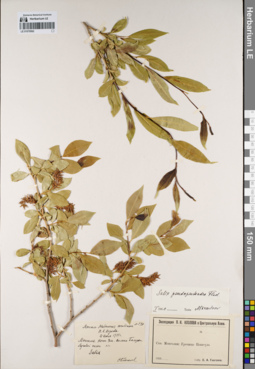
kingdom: Plantae
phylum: Tracheophyta
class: Magnoliopsida
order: Malpighiales
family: Salicaceae
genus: Salix
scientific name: Salix pseudopentandra
